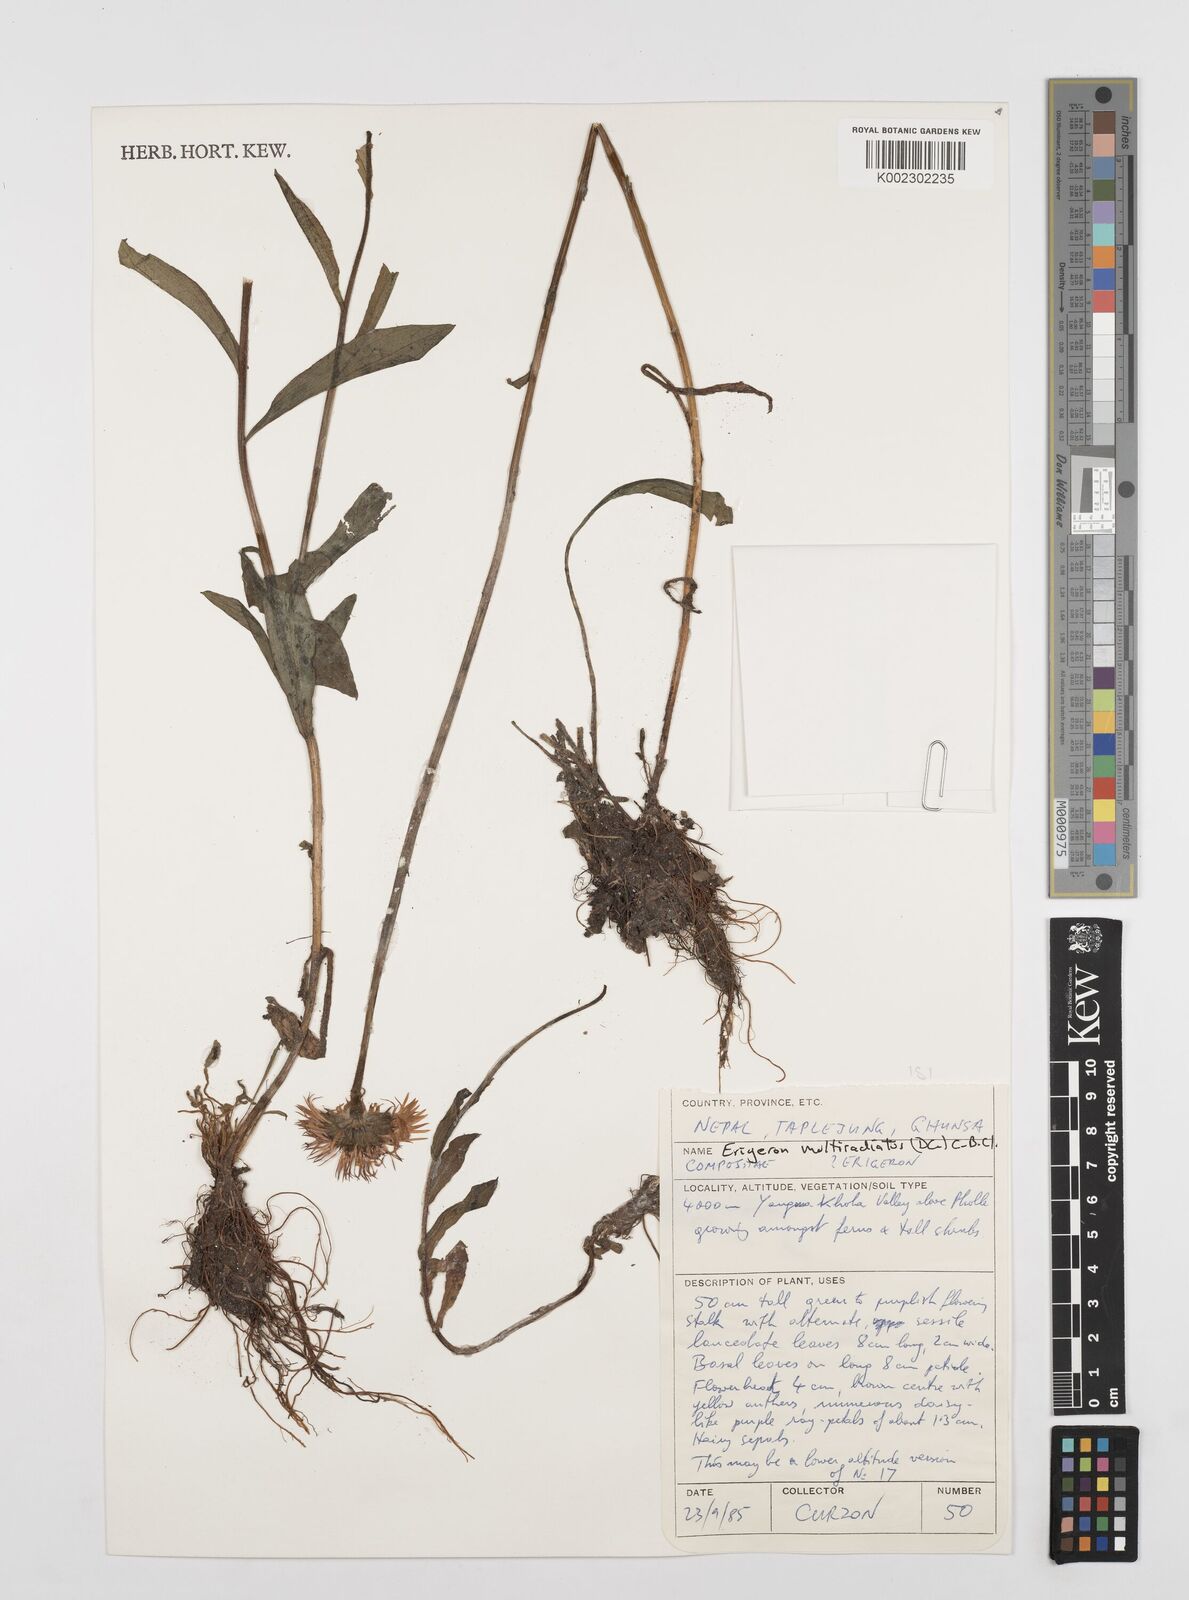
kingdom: Plantae
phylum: Tracheophyta
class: Magnoliopsida
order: Asterales
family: Asteraceae
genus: Erigeron
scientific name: Erigeron multiradiatus
